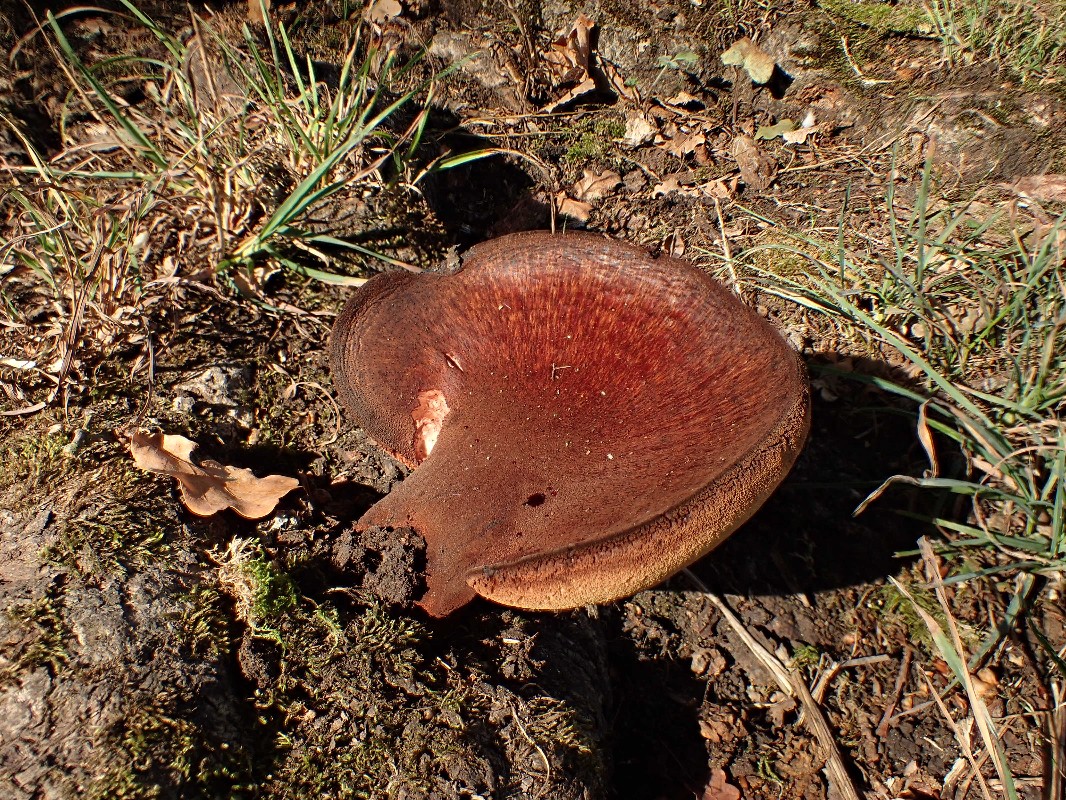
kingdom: Fungi
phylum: Basidiomycota
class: Agaricomycetes
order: Agaricales
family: Fistulinaceae
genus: Fistulina
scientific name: Fistulina hepatica
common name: oksetunge
